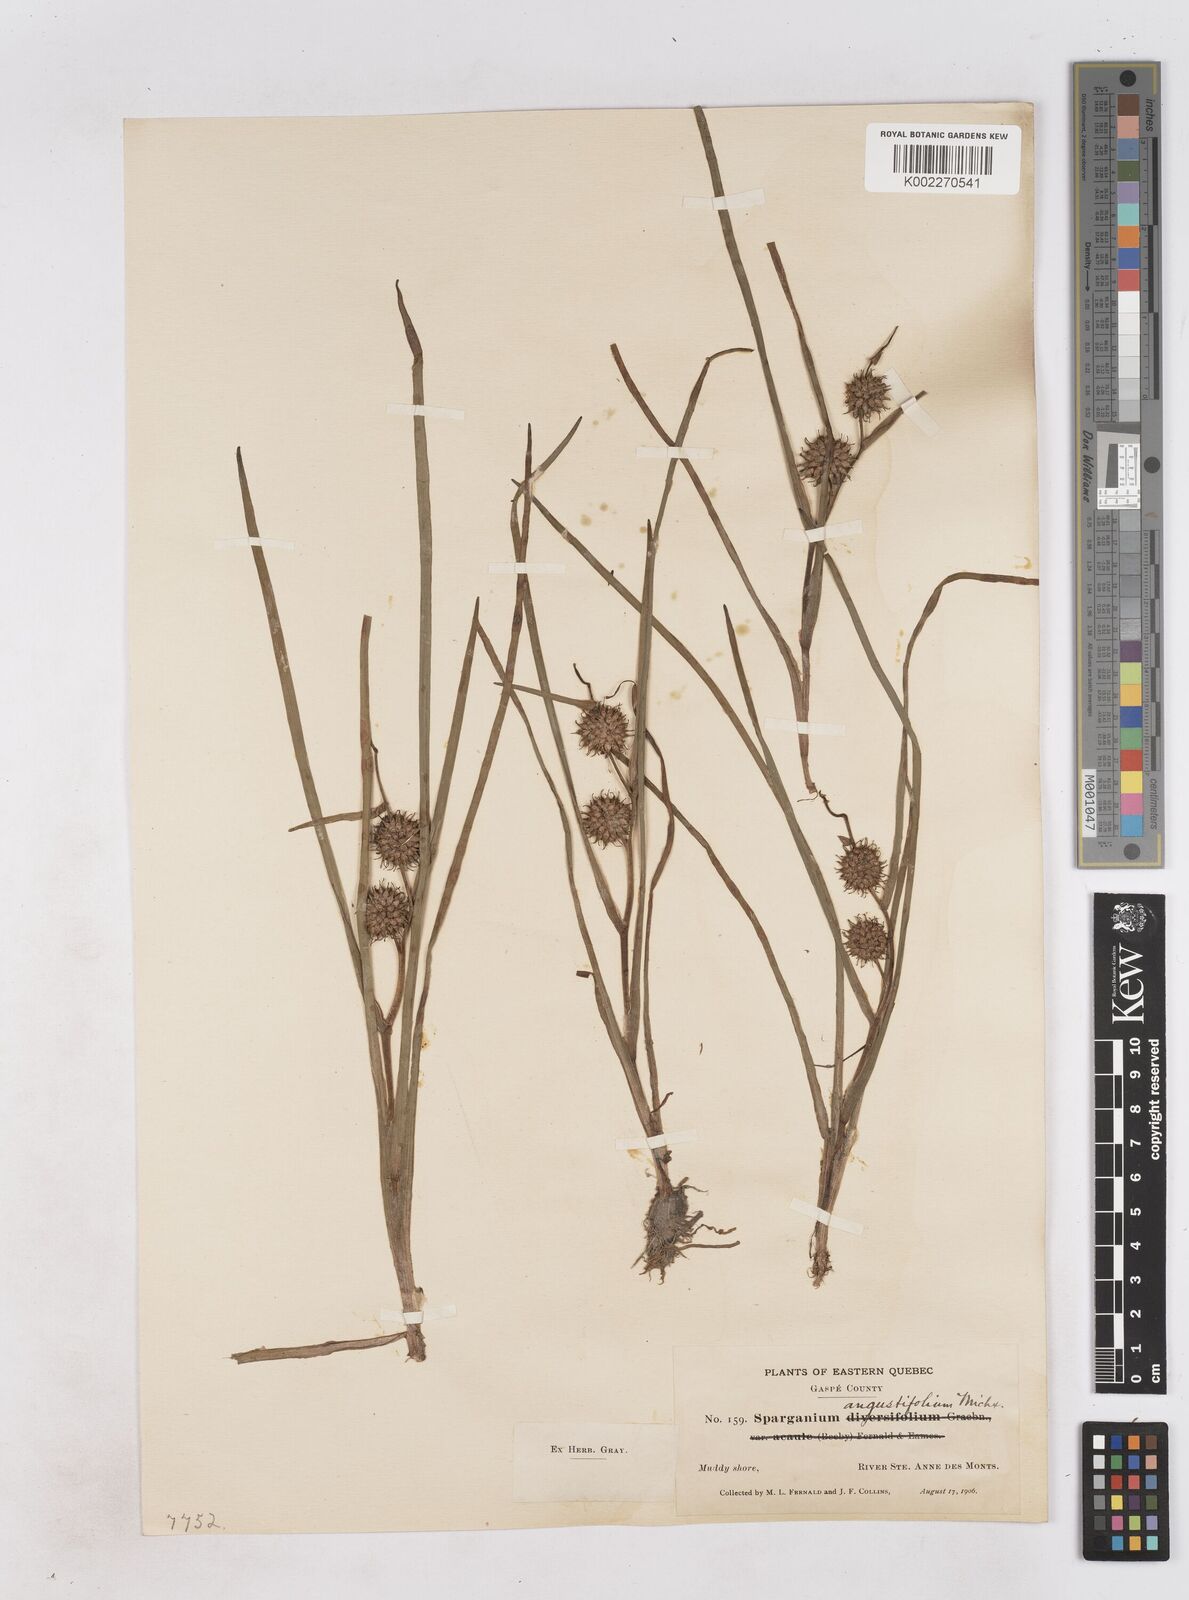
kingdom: Plantae
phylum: Tracheophyta
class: Liliopsida
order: Poales
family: Typhaceae
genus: Sparganium
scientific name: Sparganium angustifolium
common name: Floating bur-reed
